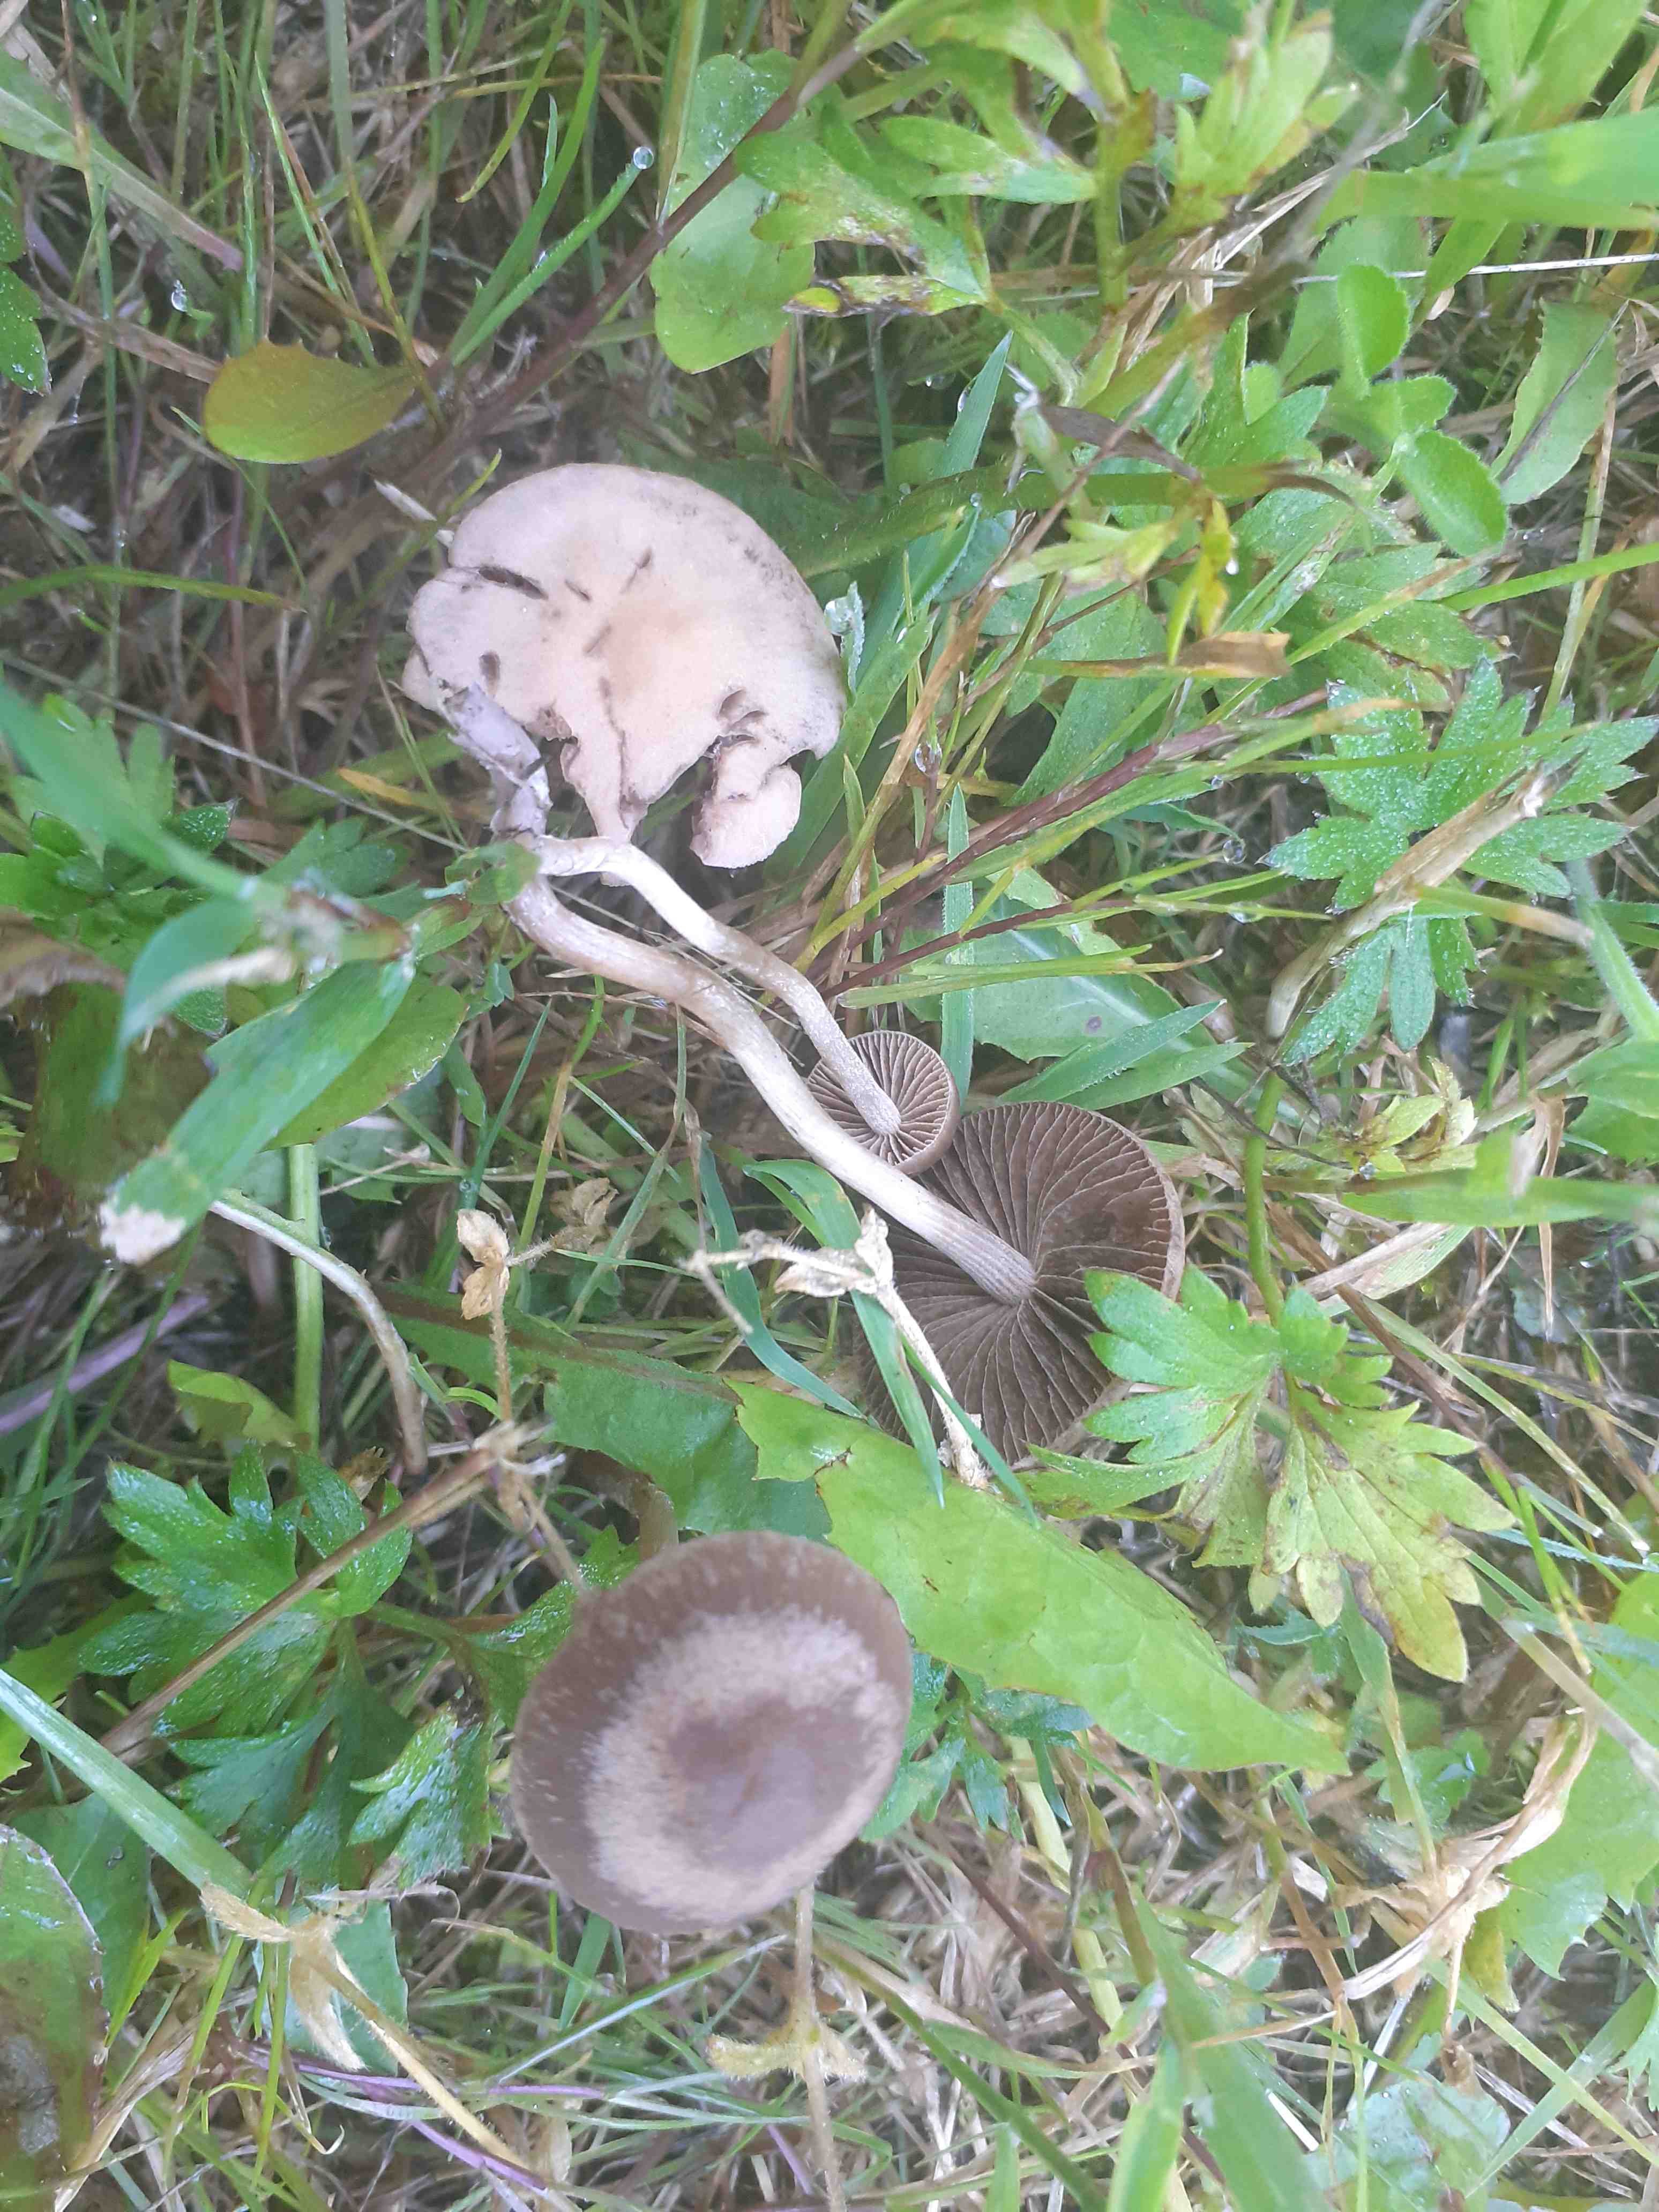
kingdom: Fungi
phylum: Basidiomycota
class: Agaricomycetes
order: Agaricales
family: Bolbitiaceae
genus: Panaeolina
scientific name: Panaeolina foenisecii
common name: høslætsvamp
